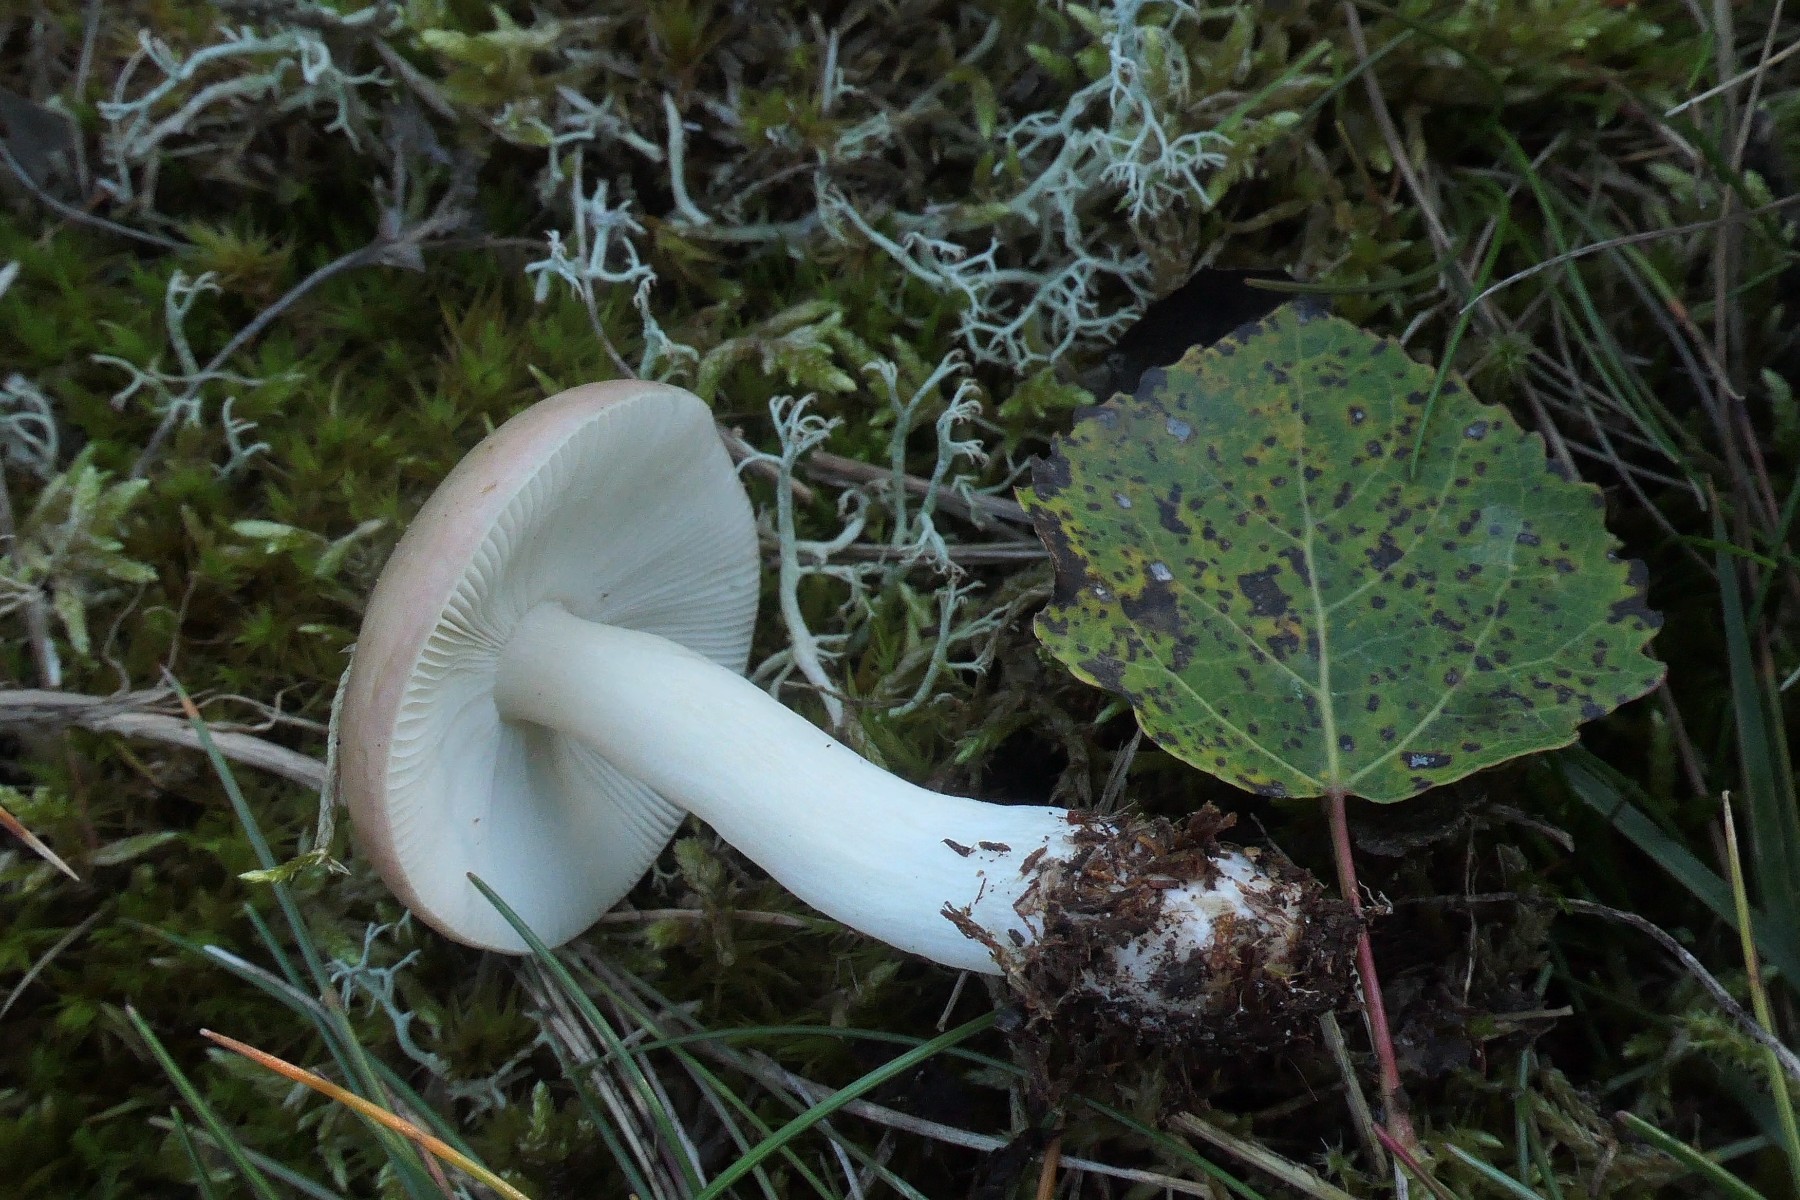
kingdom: Fungi
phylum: Basidiomycota
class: Agaricomycetes
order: Russulales
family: Russulaceae
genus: Russula
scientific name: Russula versicolor
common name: foranderlig skørhat
